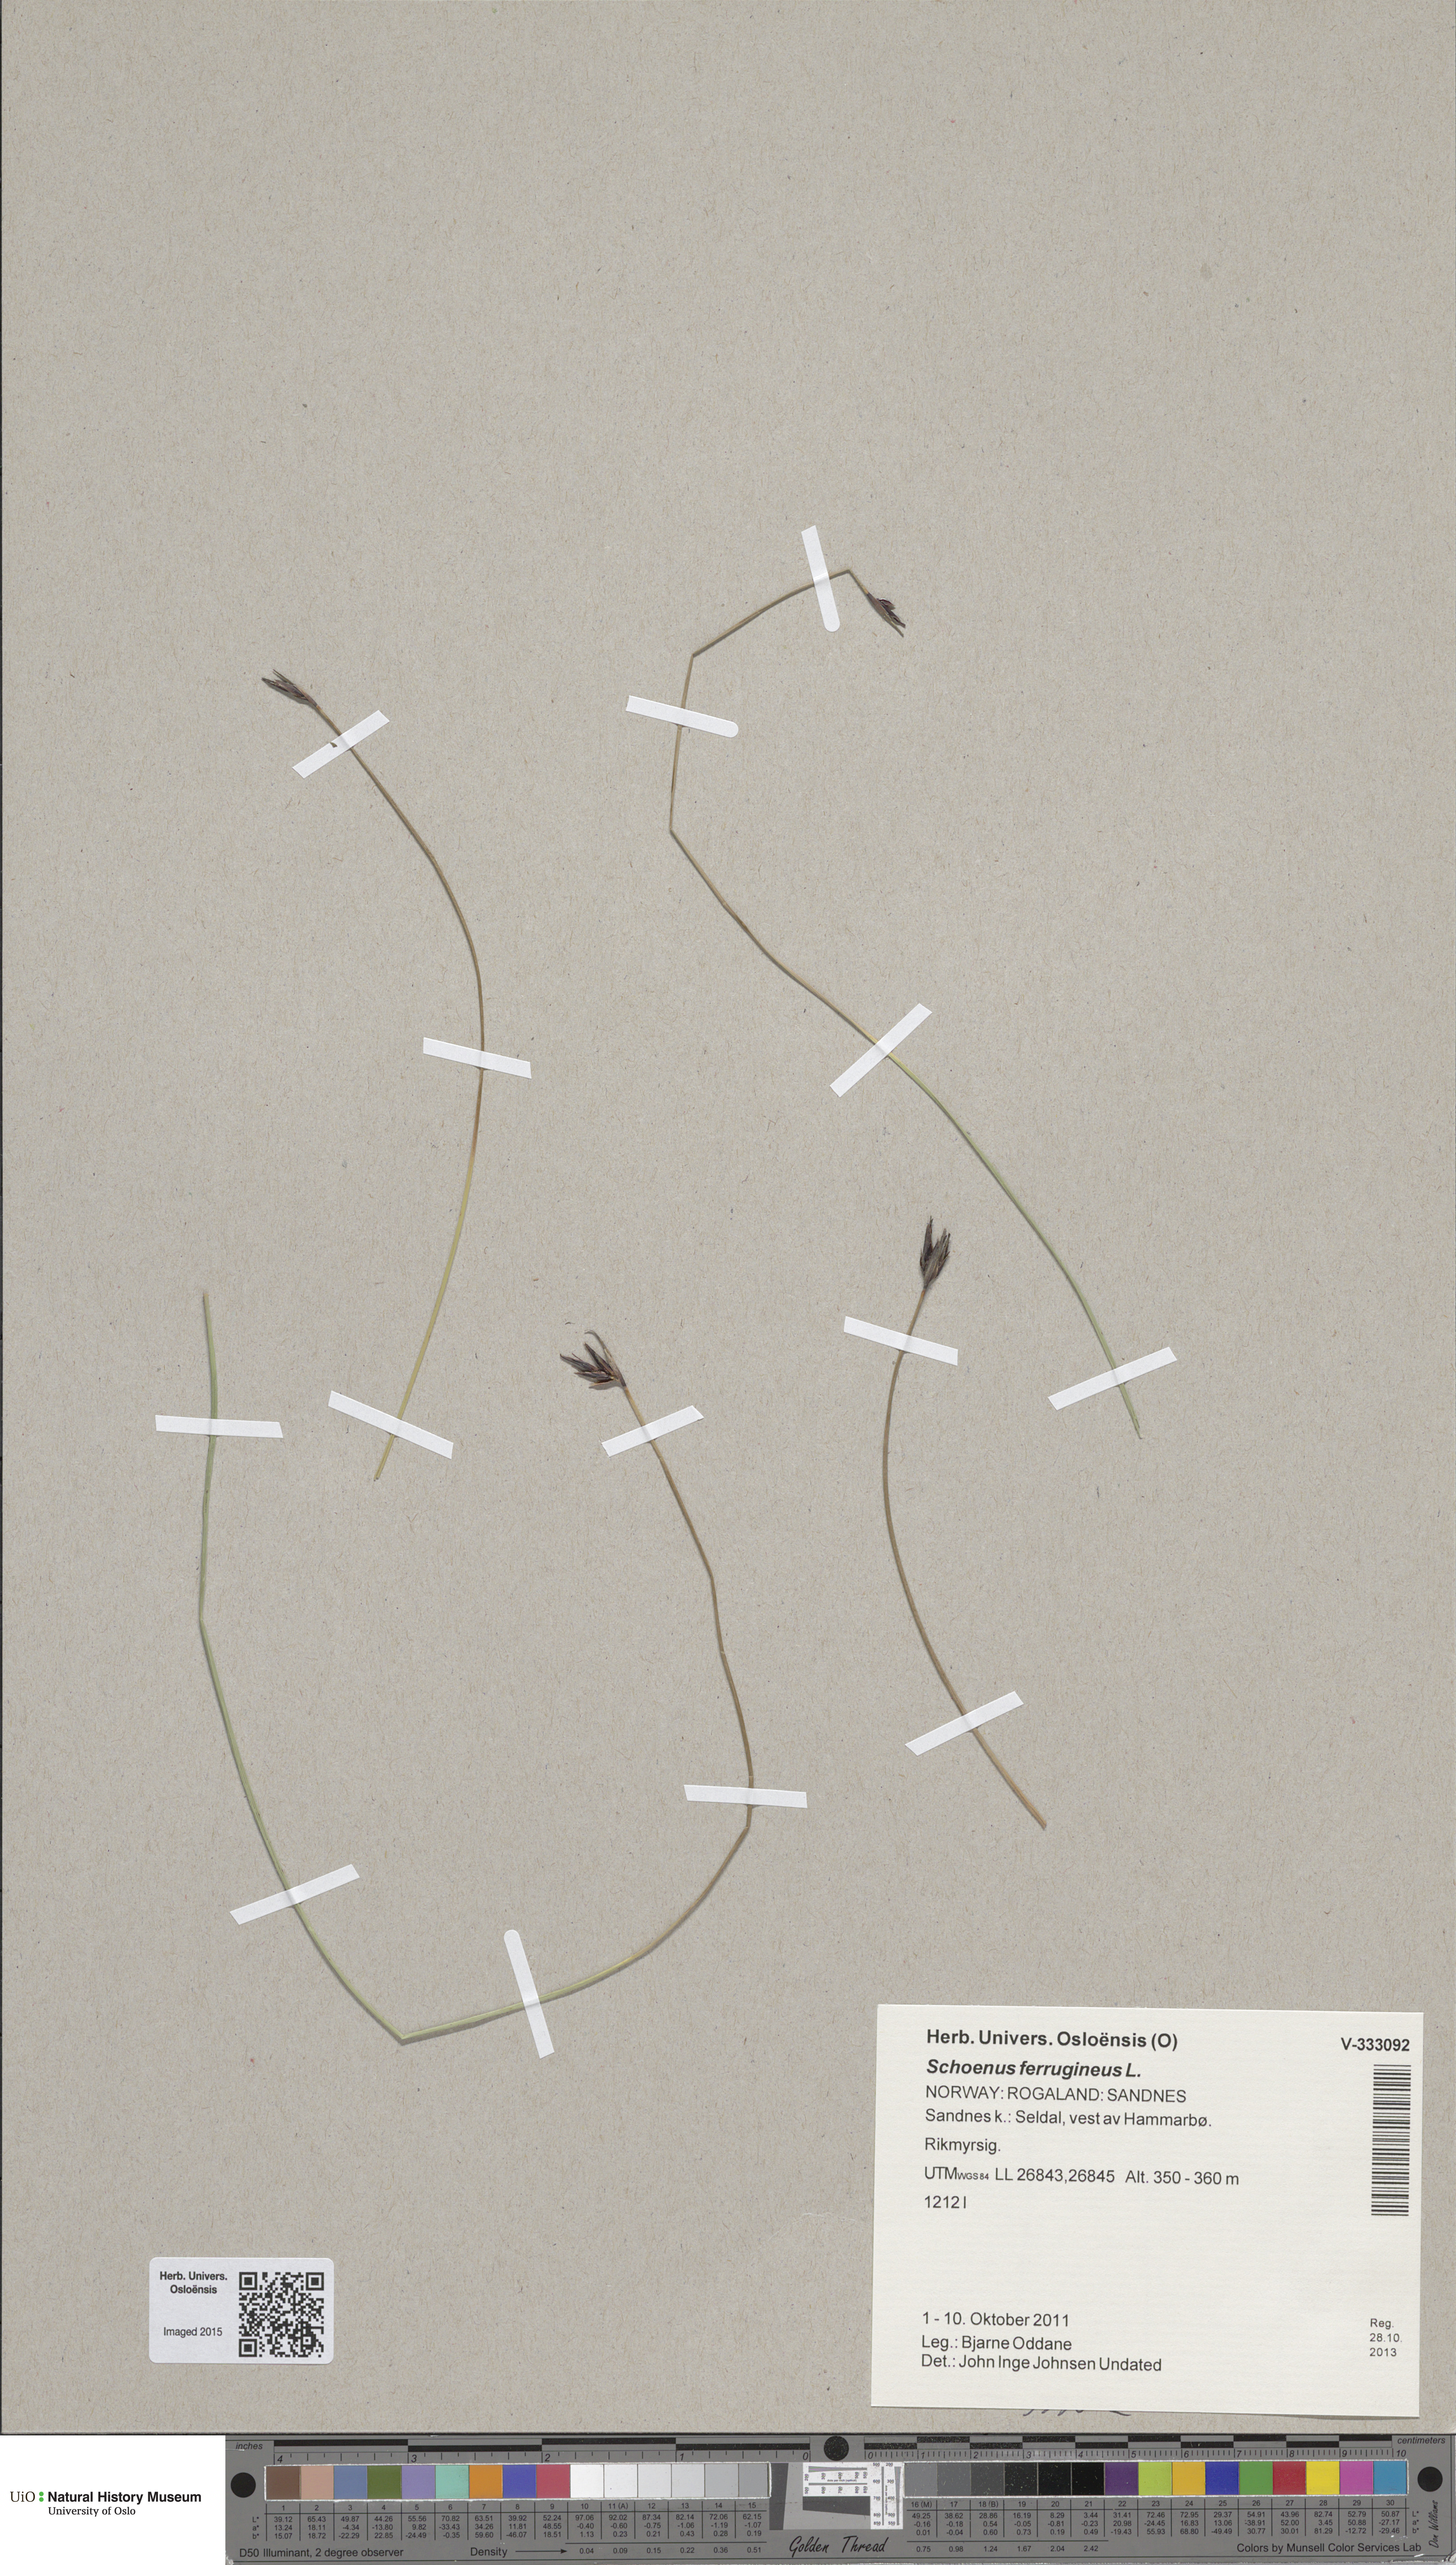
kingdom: Plantae
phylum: Tracheophyta
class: Liliopsida
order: Poales
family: Cyperaceae
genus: Schoenus
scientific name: Schoenus ferrugineus
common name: Brown bog-rush
